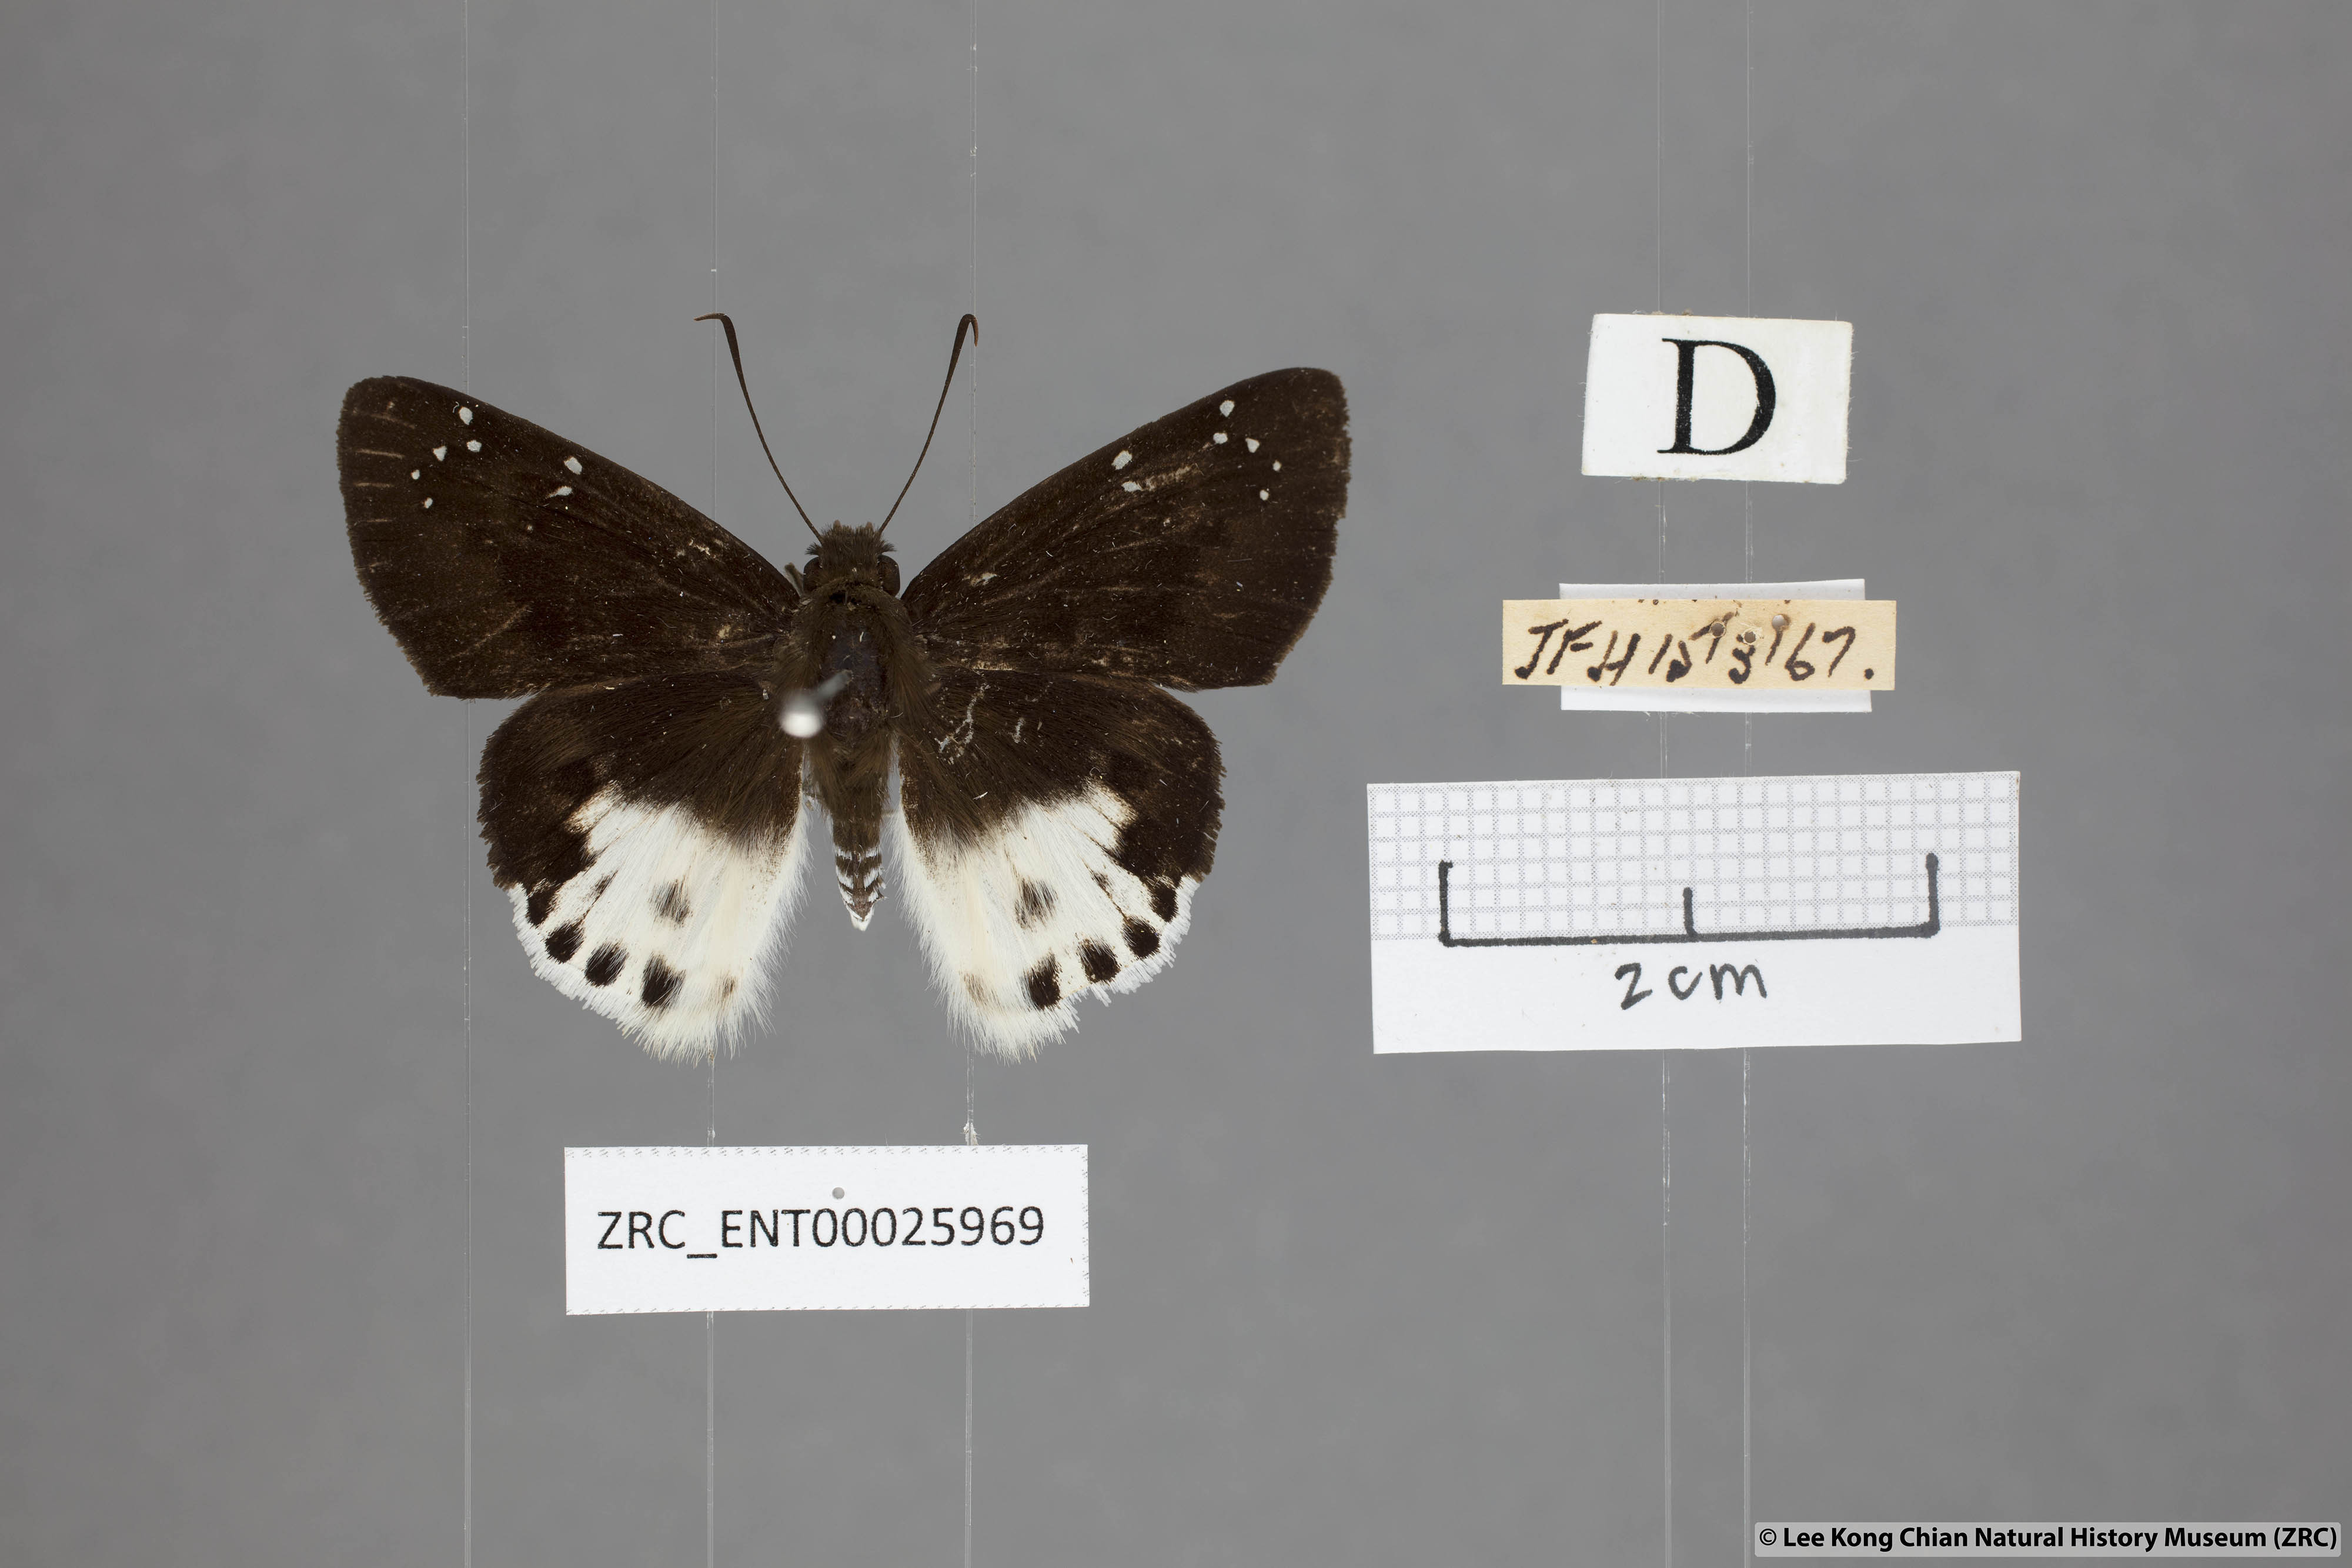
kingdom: Animalia
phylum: Arthropoda
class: Insecta
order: Lepidoptera
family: Hesperiidae
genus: Tagiades
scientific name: Tagiades cohaerens
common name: White-striped snow flat
